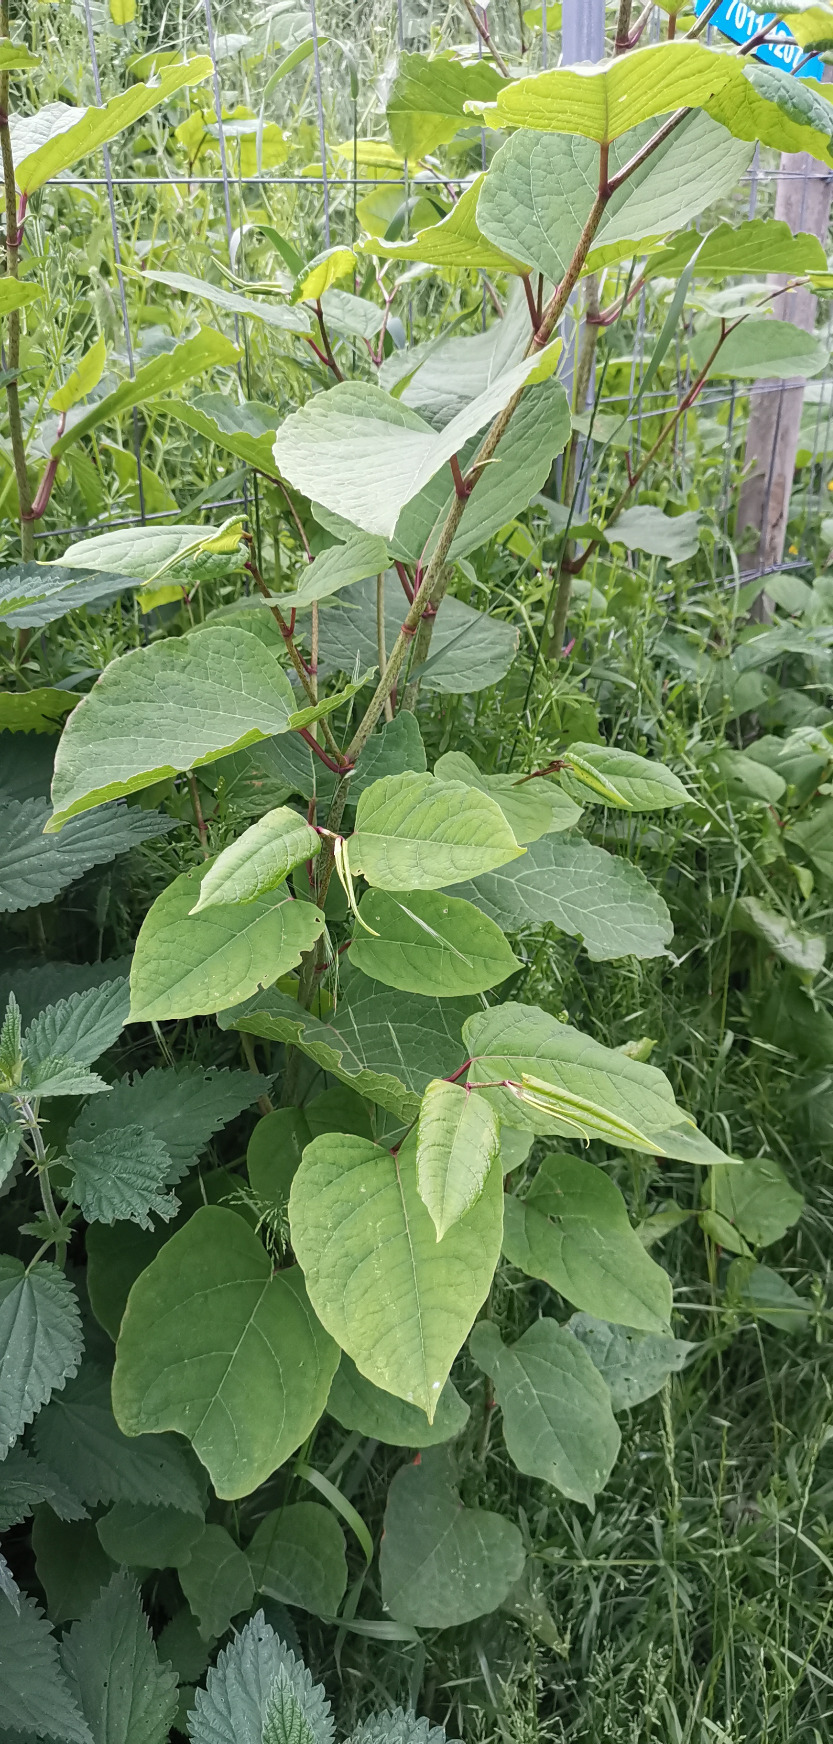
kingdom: Plantae
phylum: Tracheophyta
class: Magnoliopsida
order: Caryophyllales
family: Polygonaceae
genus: Reynoutria
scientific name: Reynoutria bohemica
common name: Hybrid-pileurt
